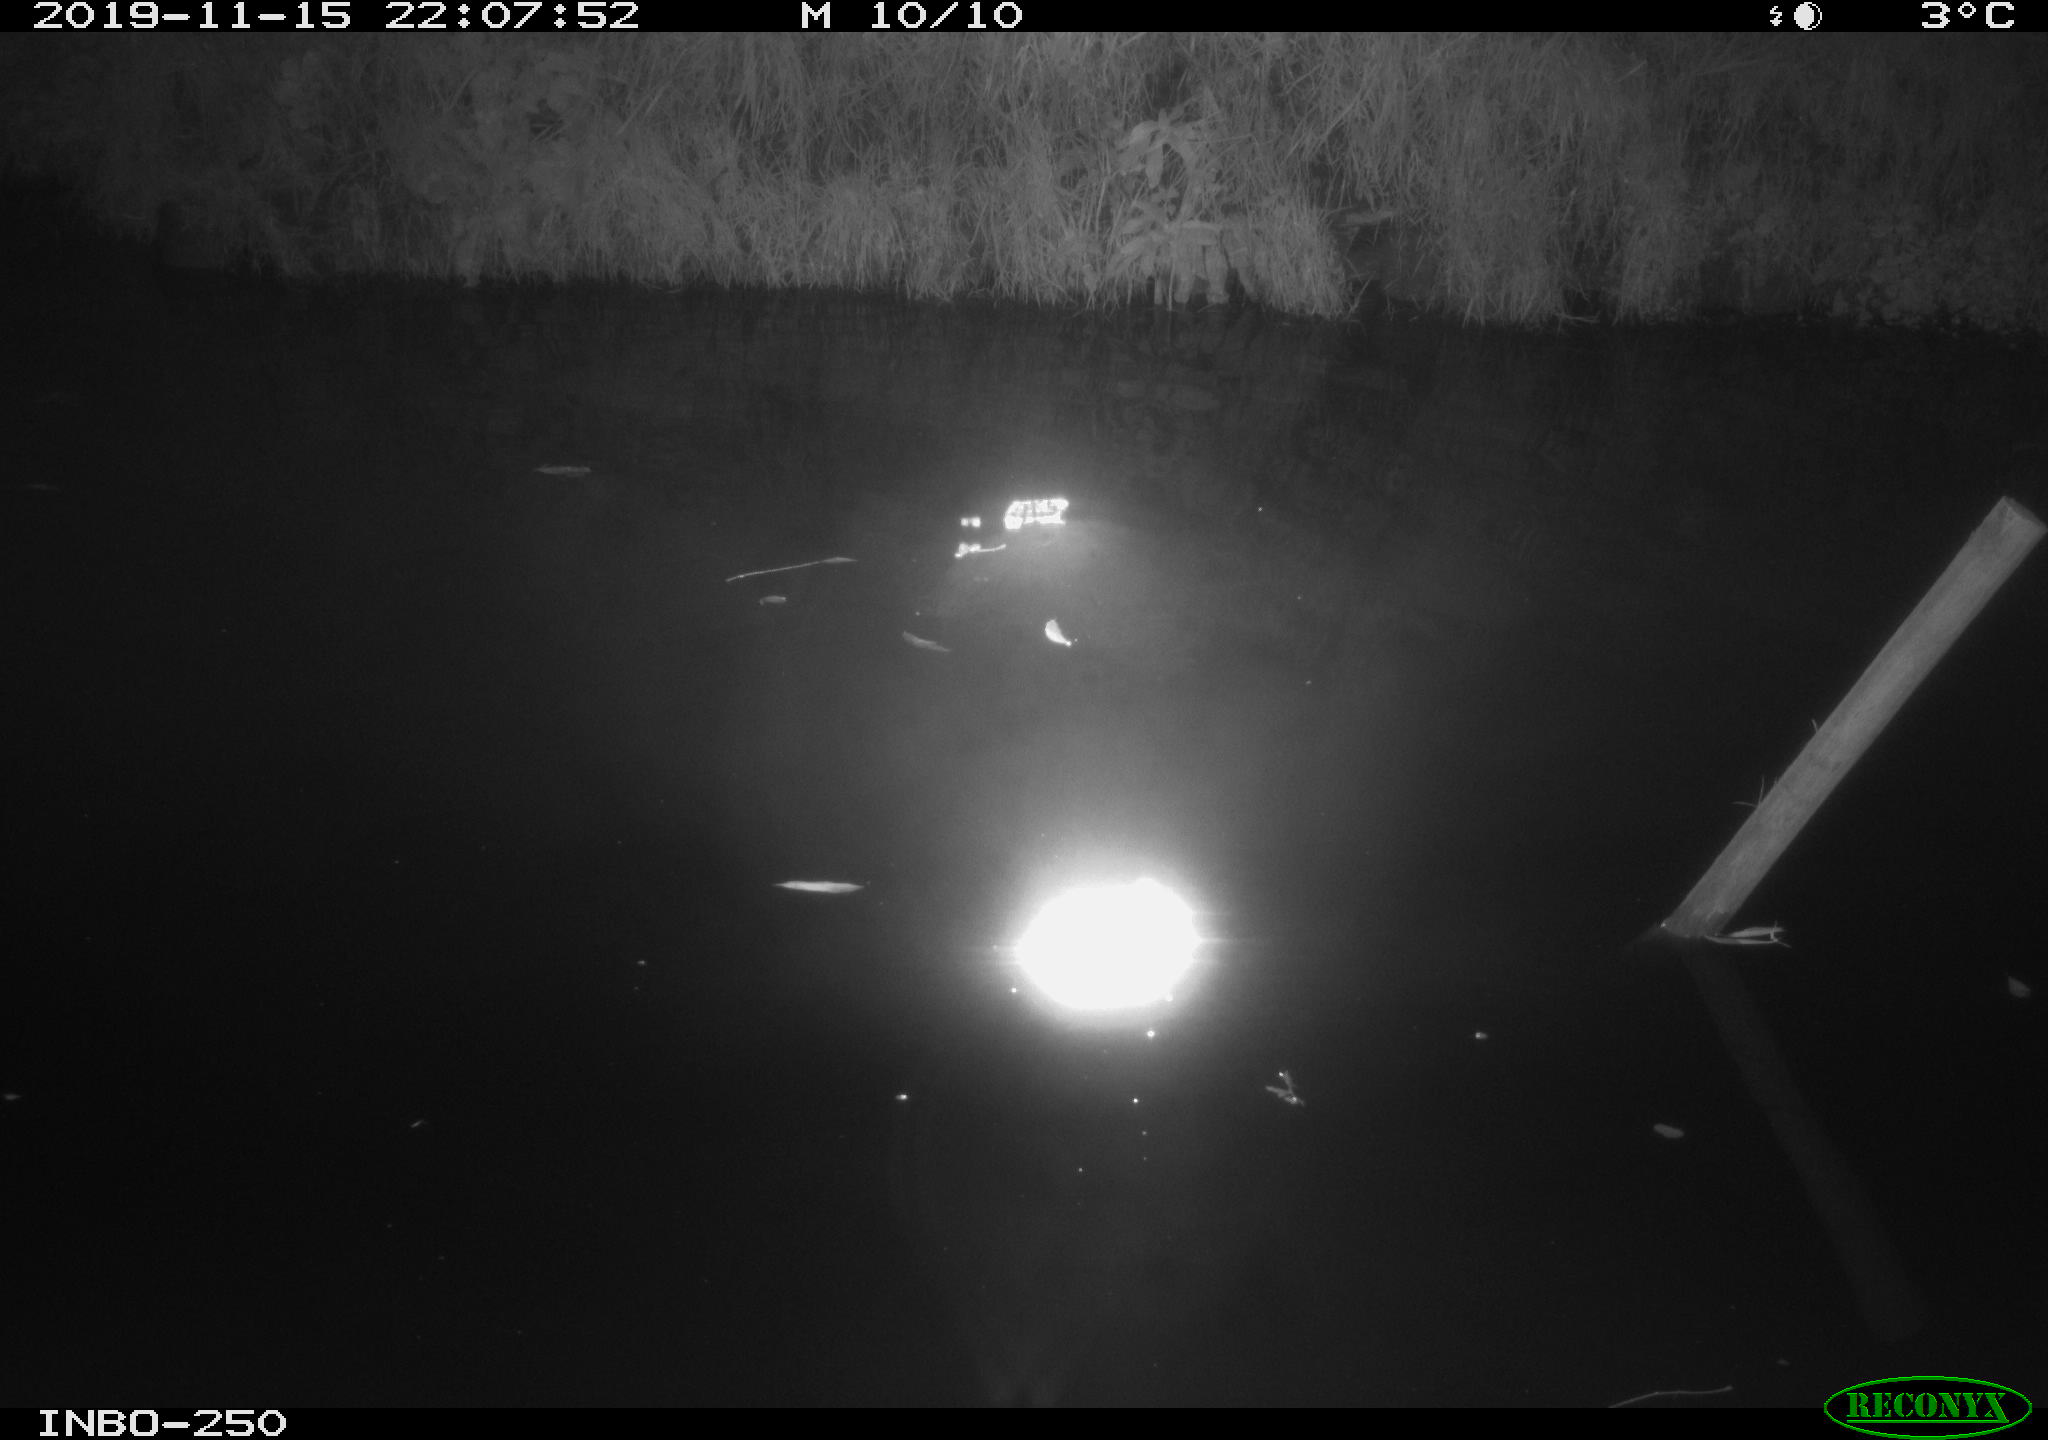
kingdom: Animalia
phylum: Chordata
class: Aves
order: Anseriformes
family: Anatidae
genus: Anas
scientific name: Anas platyrhynchos
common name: Mallard
